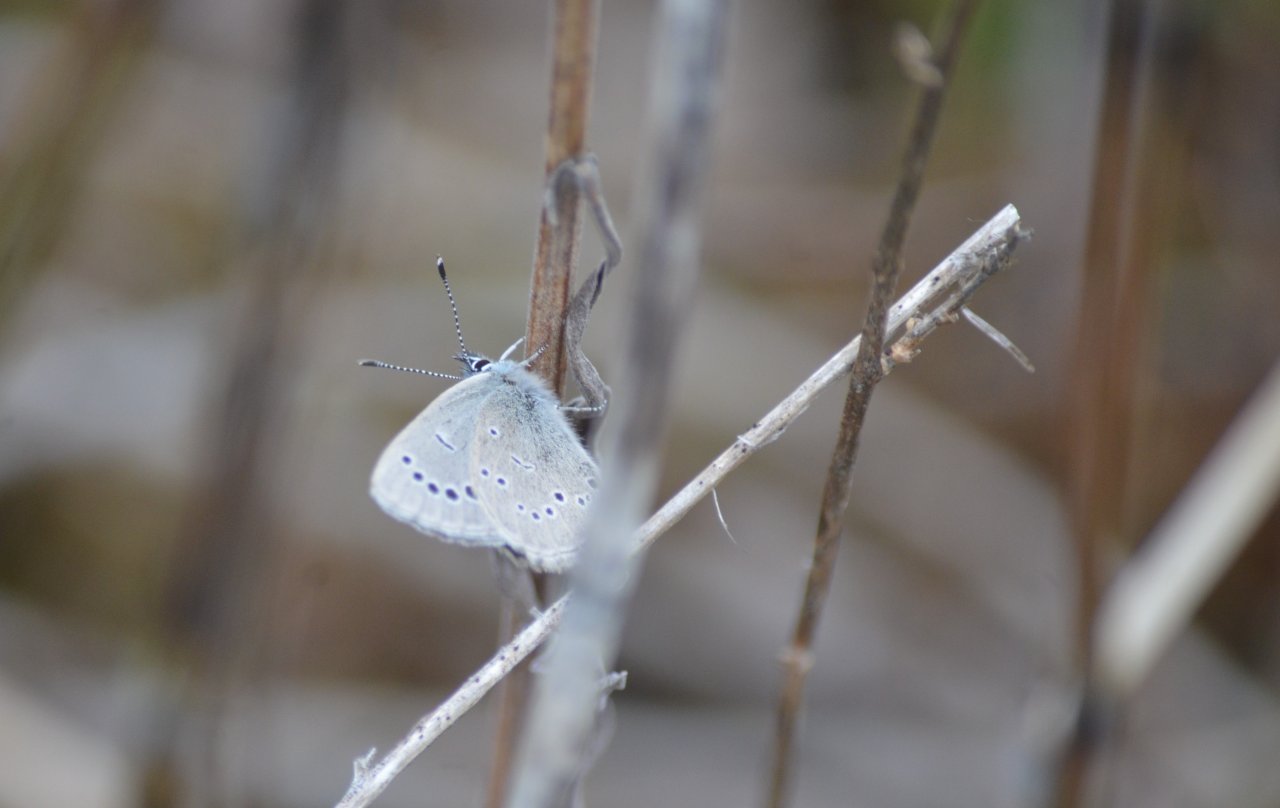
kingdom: Animalia
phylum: Arthropoda
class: Insecta
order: Lepidoptera
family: Lycaenidae
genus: Glaucopsyche
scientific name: Glaucopsyche lygdamus
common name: Silvery Blue
